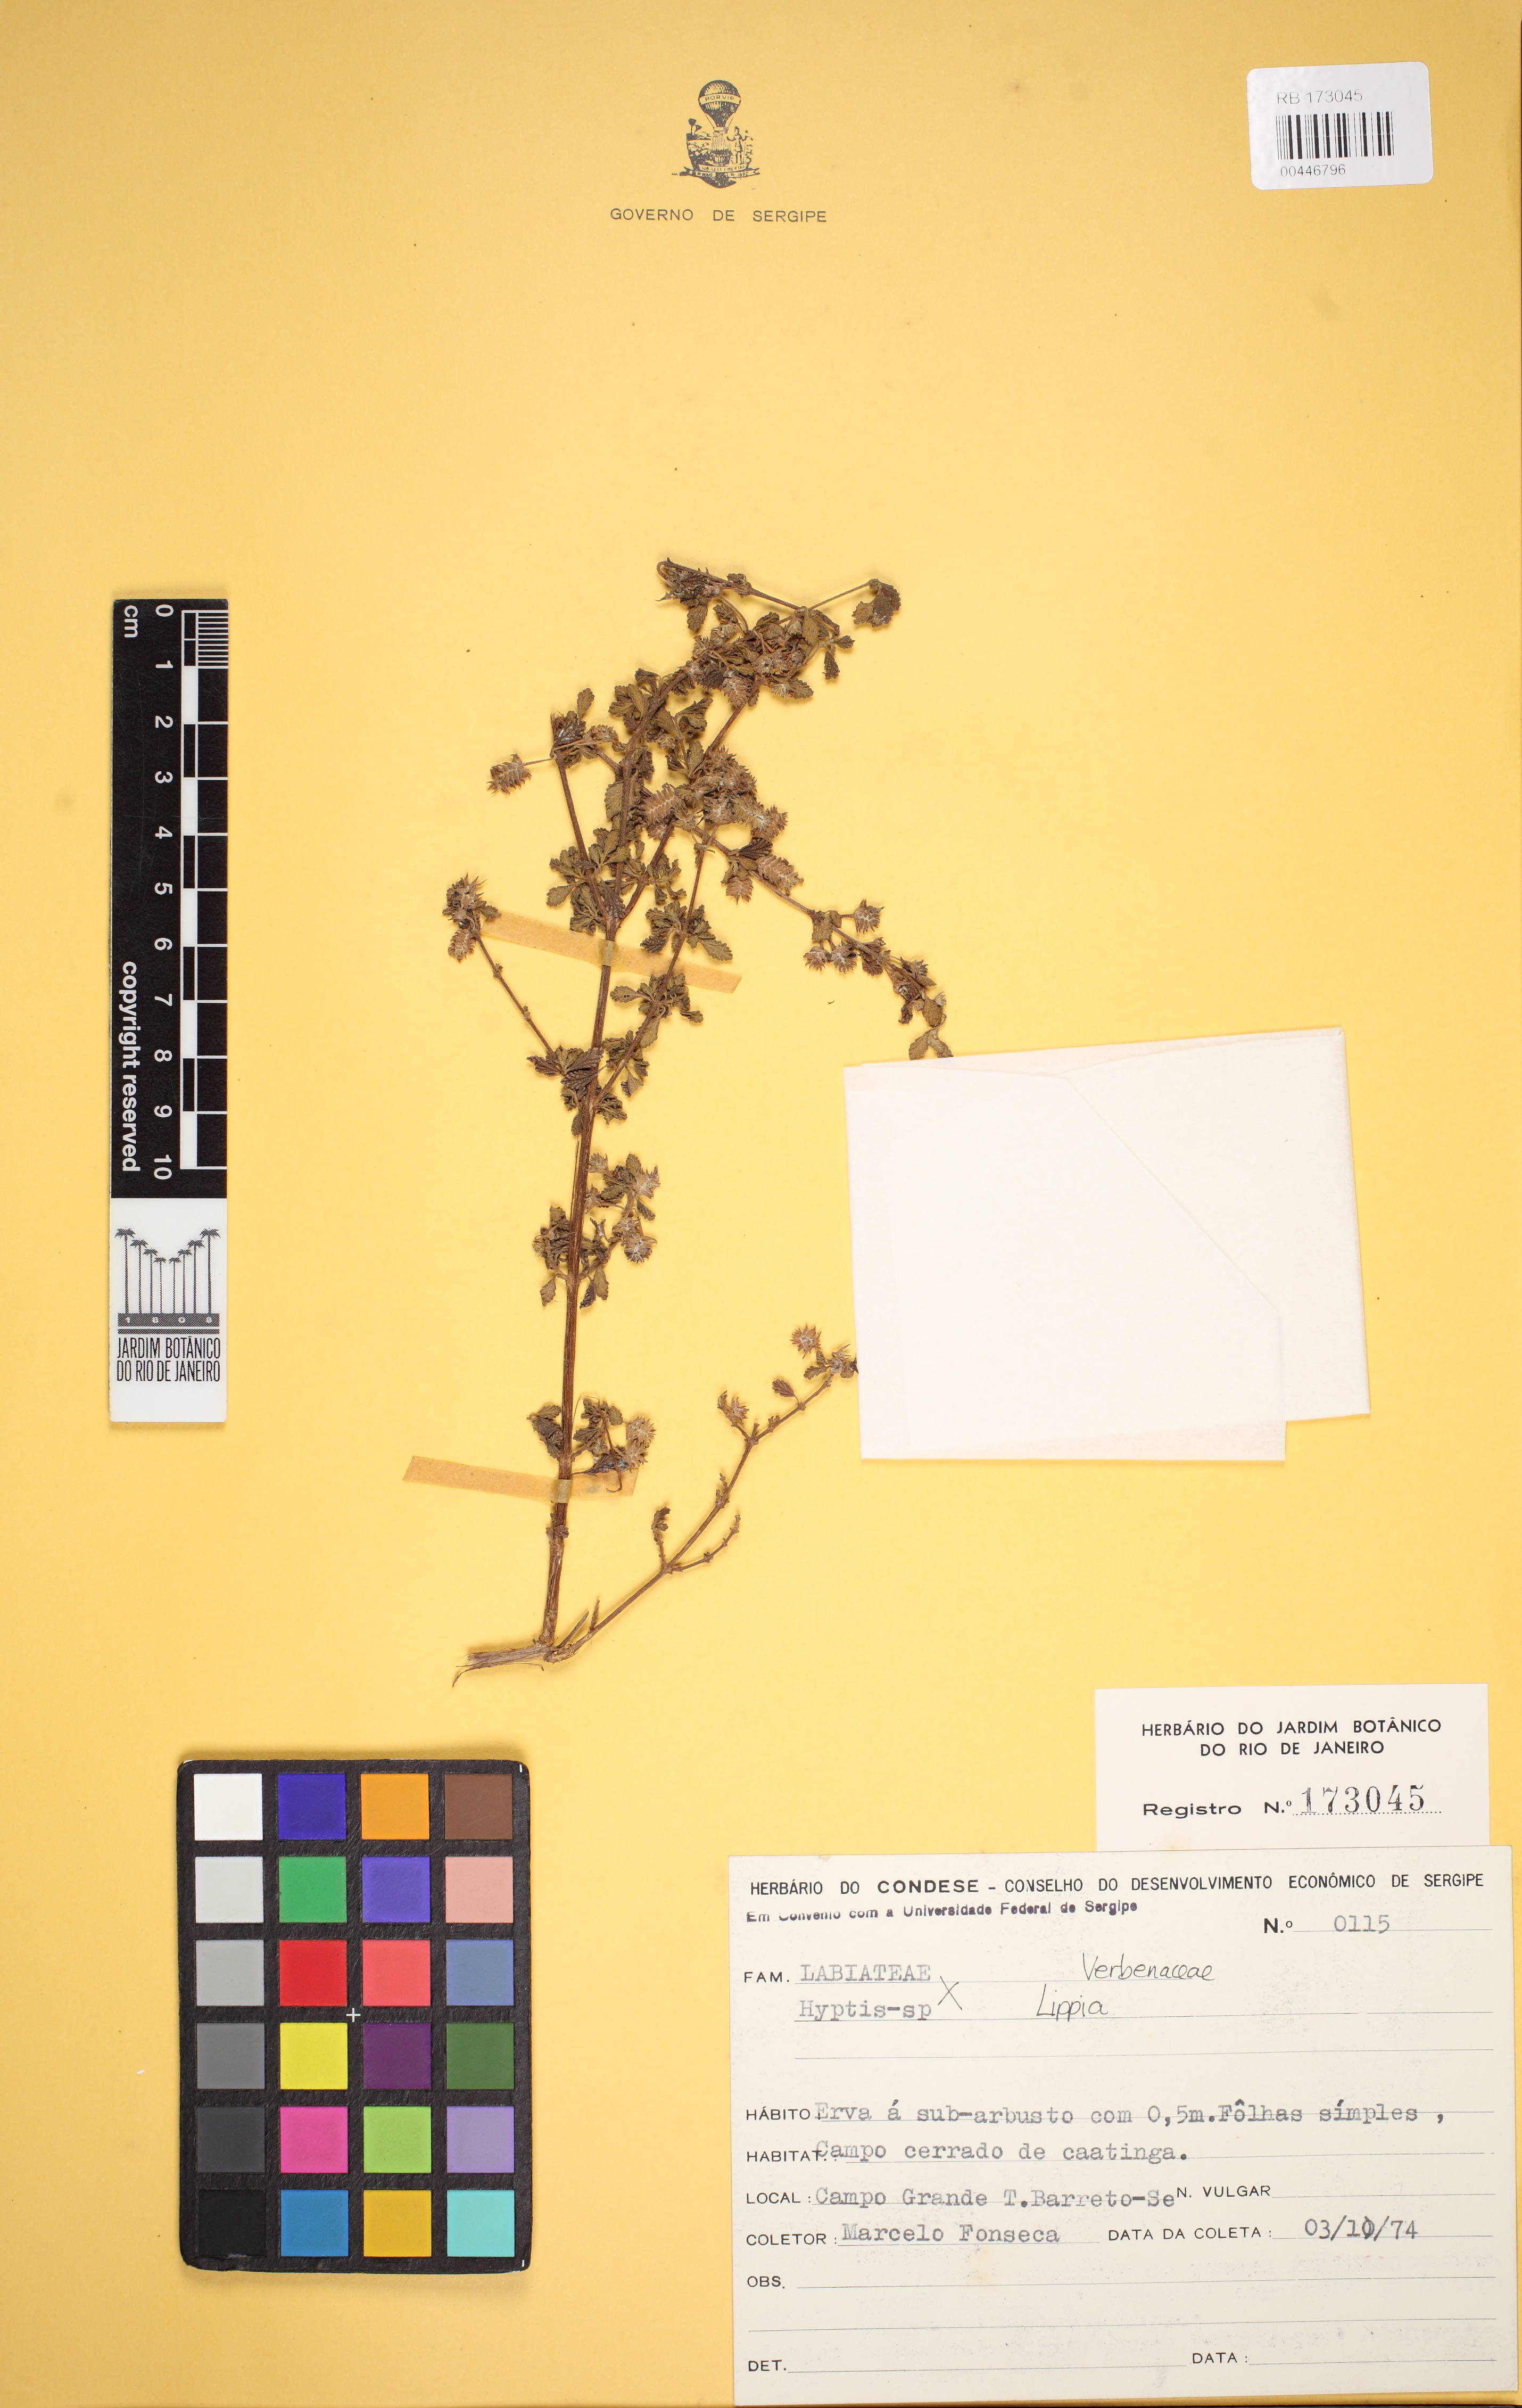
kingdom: Plantae
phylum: Tracheophyta
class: Magnoliopsida
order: Lamiales
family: Verbenaceae
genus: Lippia
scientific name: Lippia origanoides
